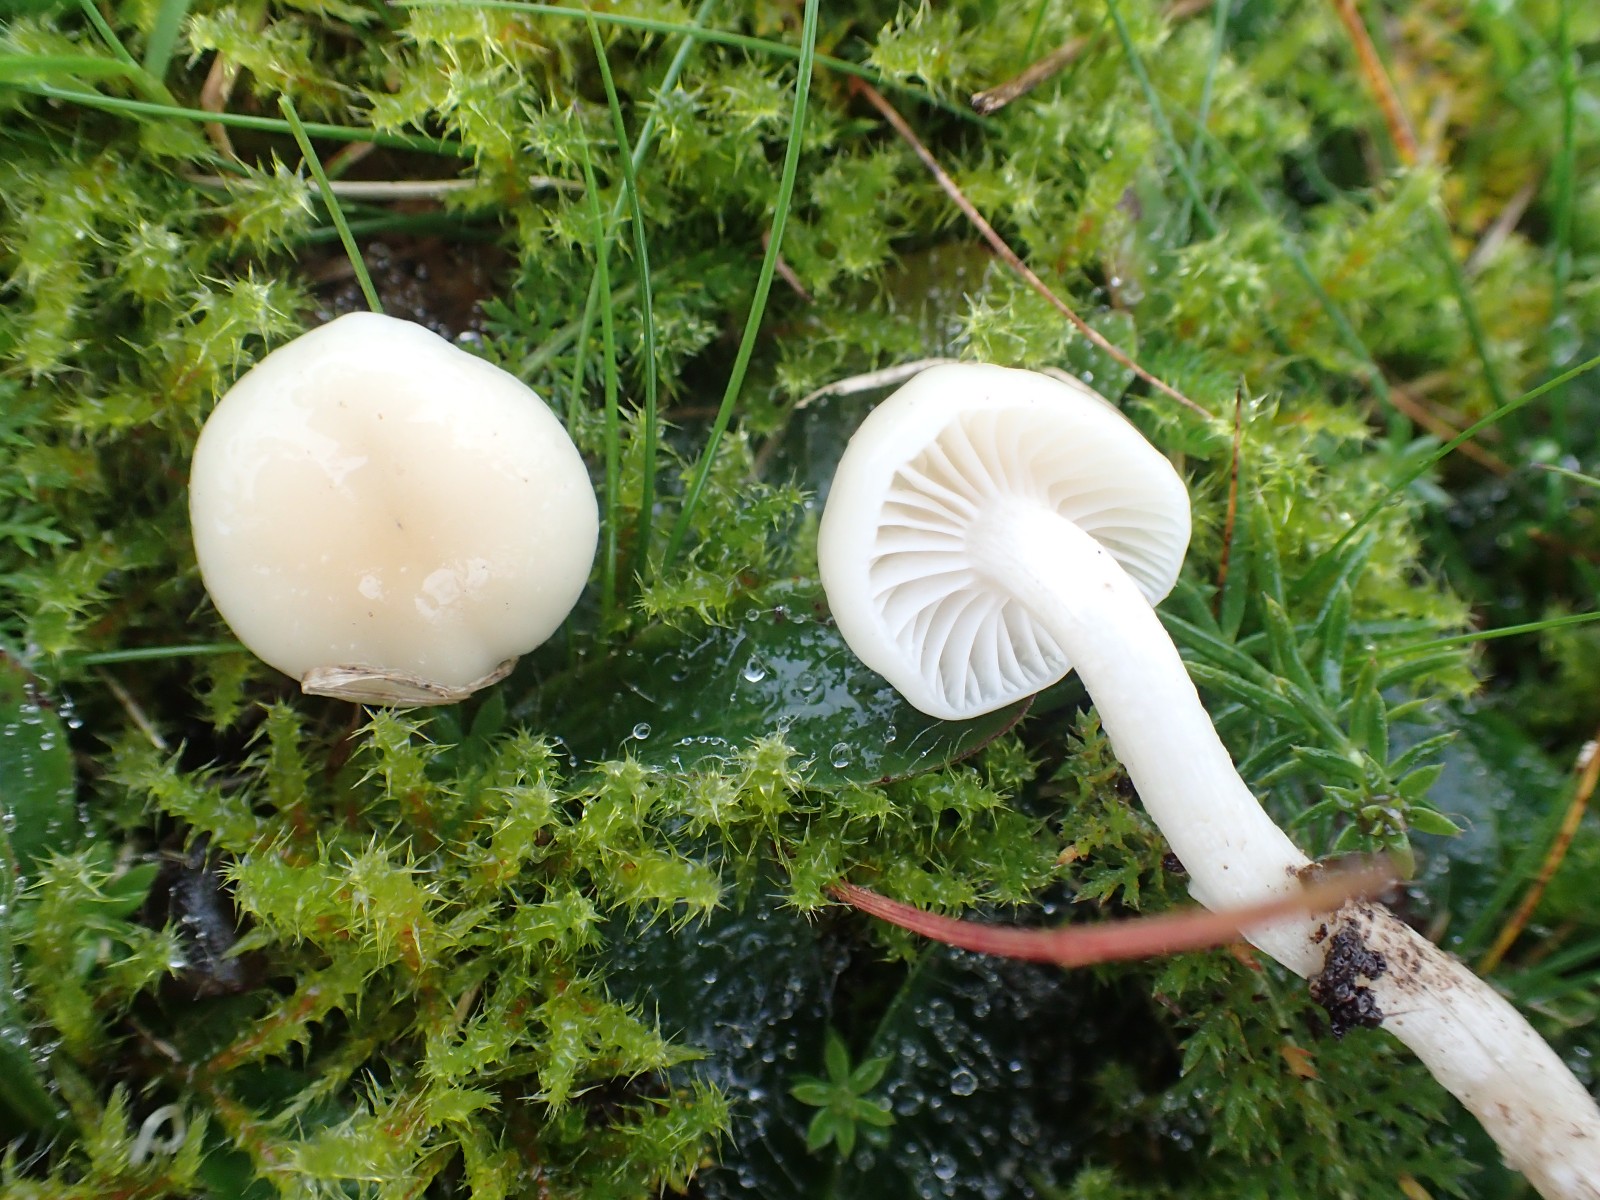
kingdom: Fungi
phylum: Basidiomycota
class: Agaricomycetes
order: Agaricales
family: Hygrophoraceae
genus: Cuphophyllus
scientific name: Cuphophyllus russocoriaceus
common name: ruslæder-vokshat
